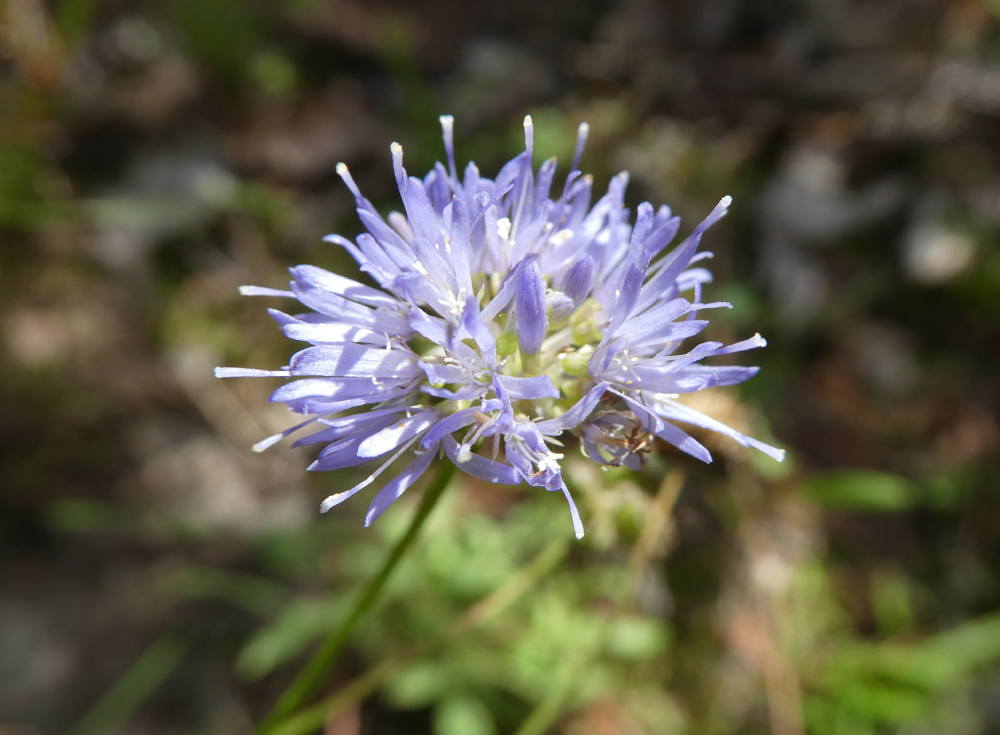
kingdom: Plantae
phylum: Tracheophyta
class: Magnoliopsida
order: Asterales
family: Campanulaceae
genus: Jasione
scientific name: Jasione montana
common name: Sheep's-bit
